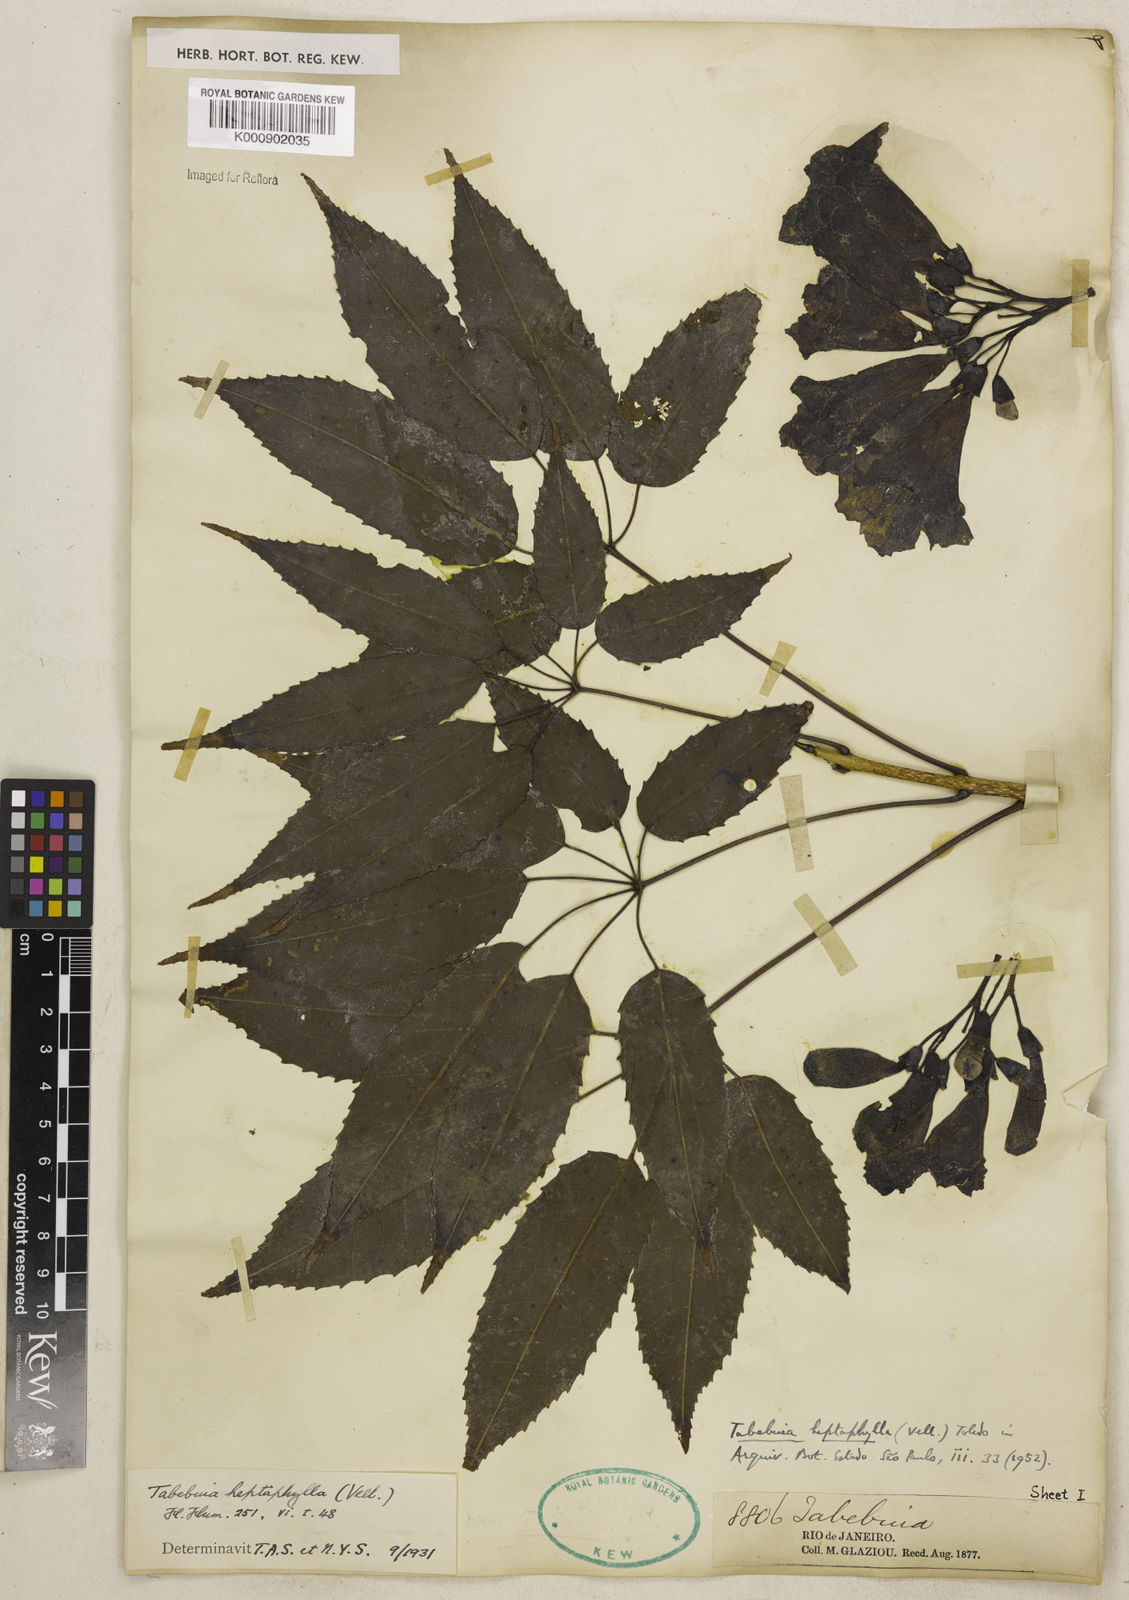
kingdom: Plantae
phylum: Tracheophyta
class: Magnoliopsida
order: Lamiales
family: Bignoniaceae
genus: Handroanthus
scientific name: Handroanthus heptaphyllus
